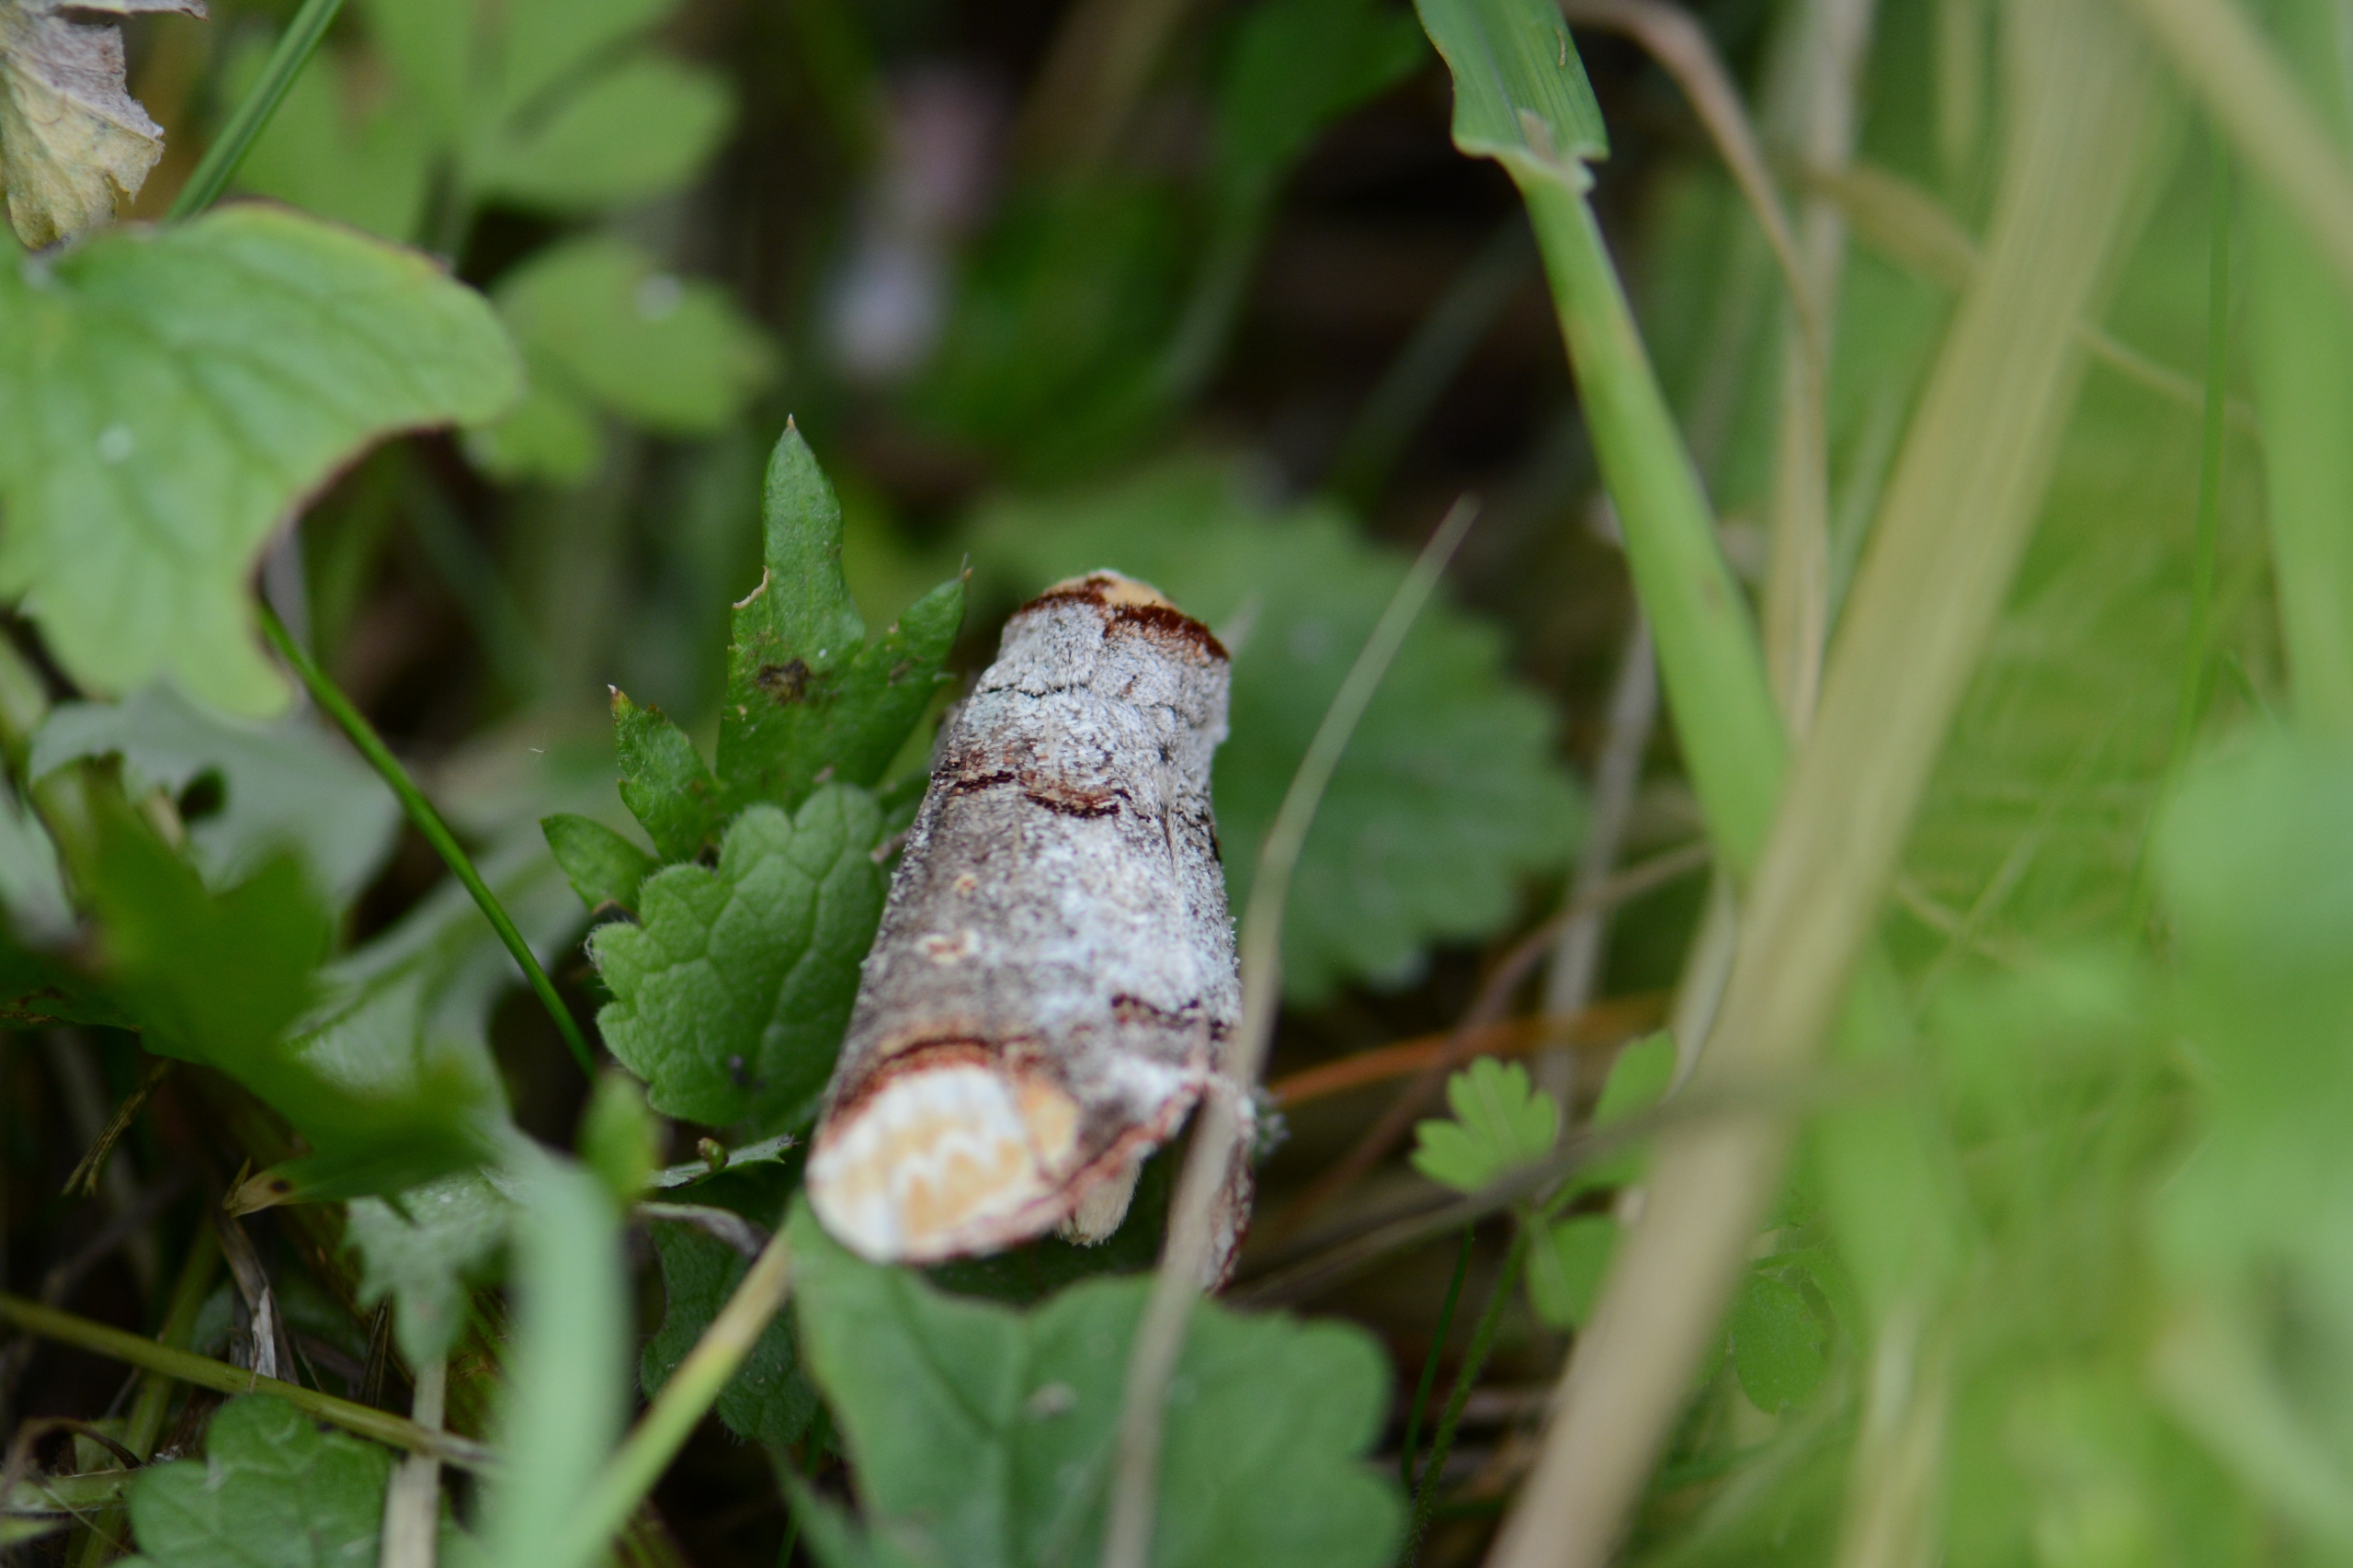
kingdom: Animalia
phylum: Arthropoda
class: Insecta
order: Lepidoptera
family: Notodontidae
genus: Phalera
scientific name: Phalera bucephala
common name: Måneplet
